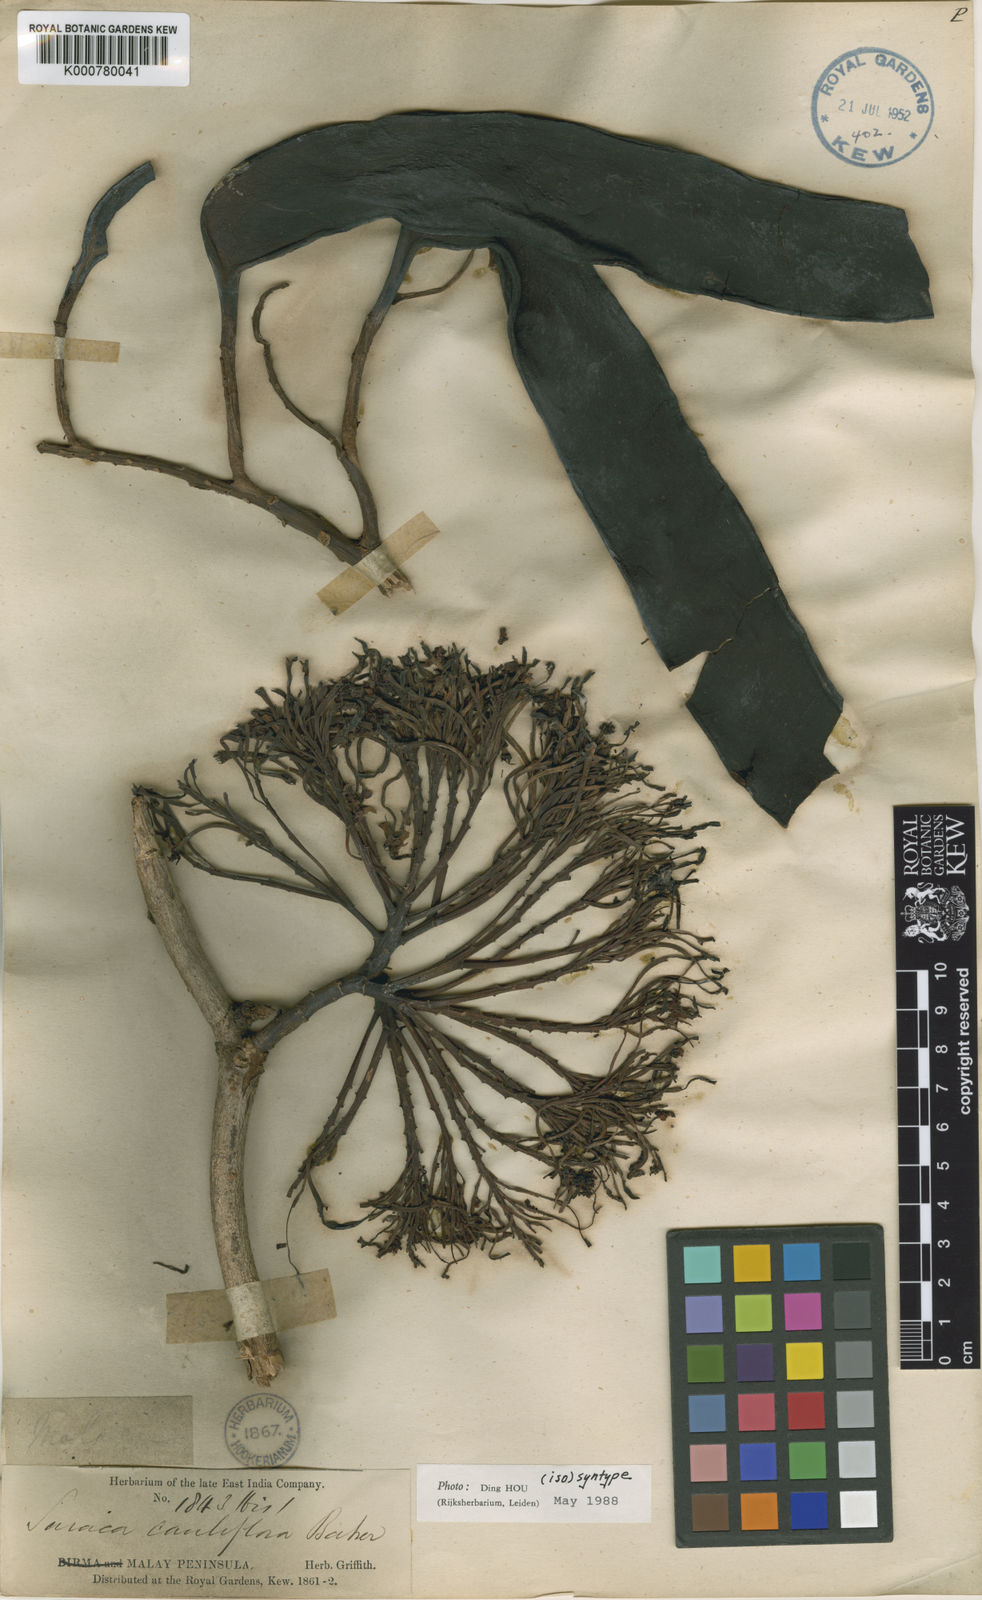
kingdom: Plantae
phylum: Tracheophyta
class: Magnoliopsida
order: Fabales
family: Fabaceae
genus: Saraca
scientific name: Saraca declinata
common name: Red saraca
